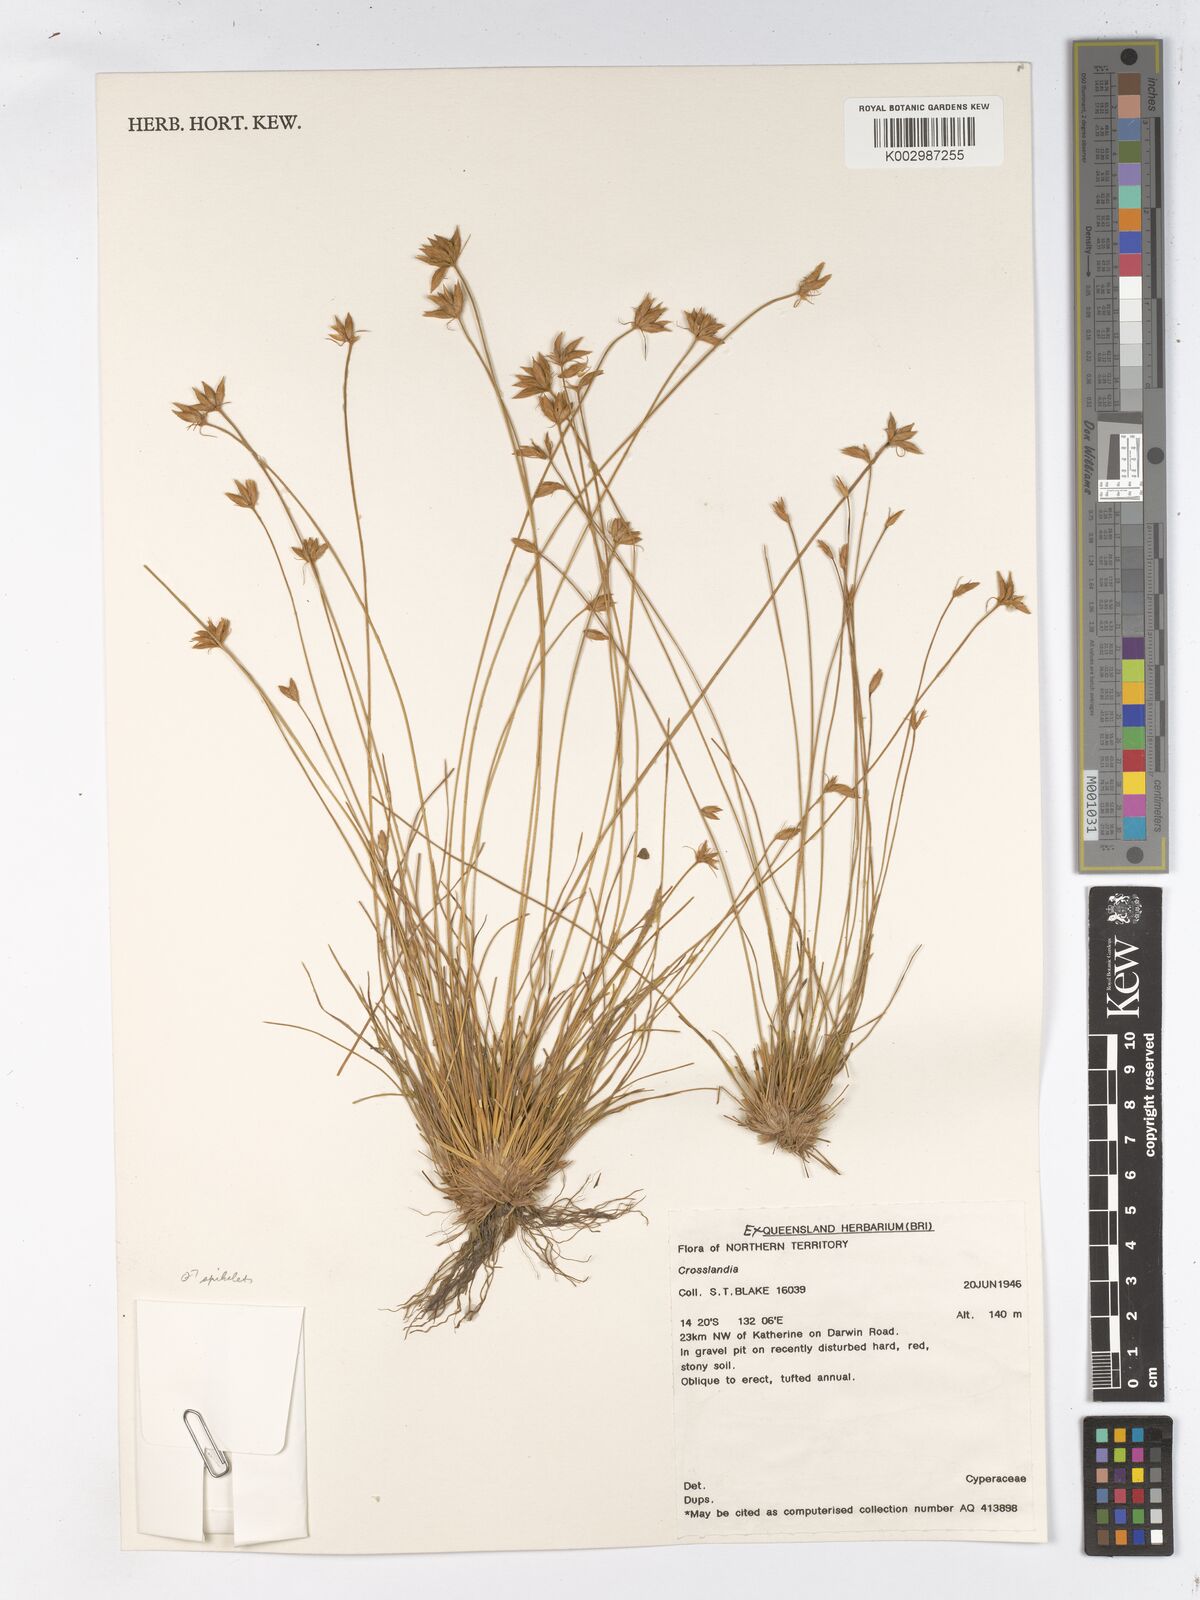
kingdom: Plantae
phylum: Tracheophyta
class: Liliopsida
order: Poales
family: Cyperaceae
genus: Fimbristylis
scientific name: Fimbristylis crosslandii
